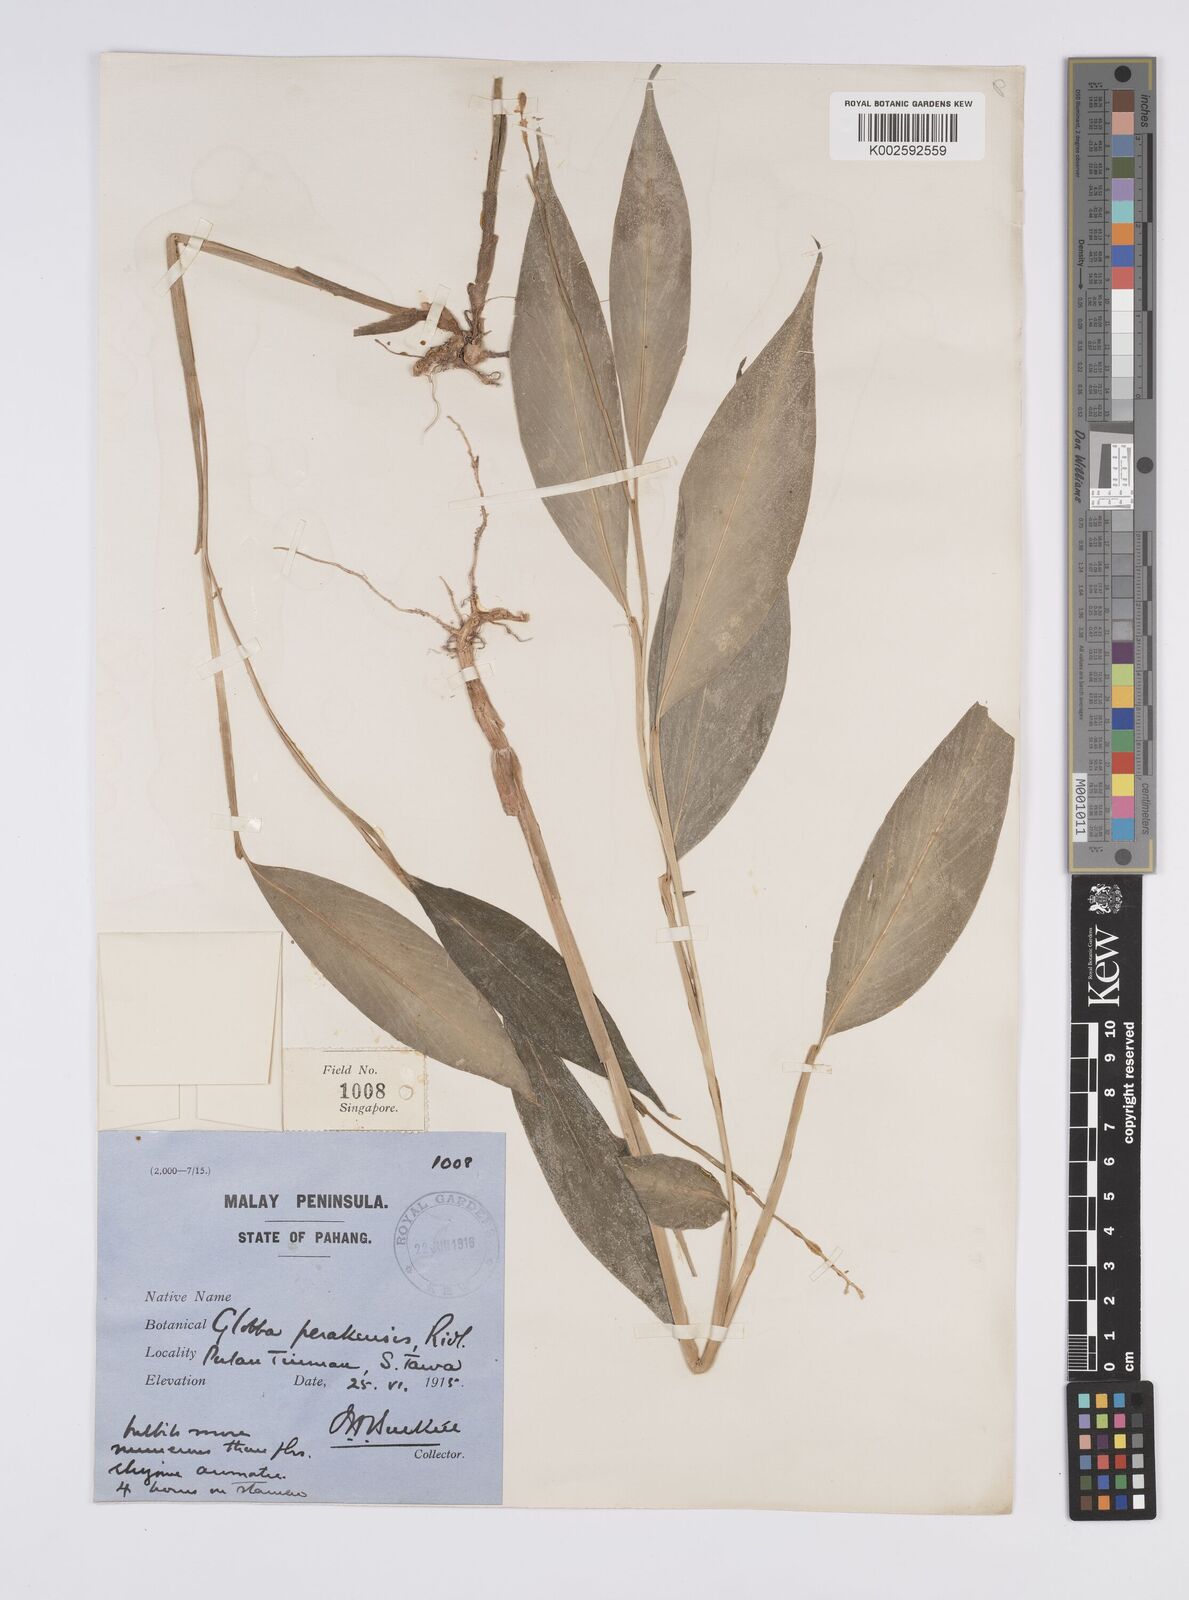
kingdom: Plantae
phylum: Tracheophyta
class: Liliopsida
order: Zingiberales
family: Zingiberaceae
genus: Globba
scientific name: Globba variabilis
